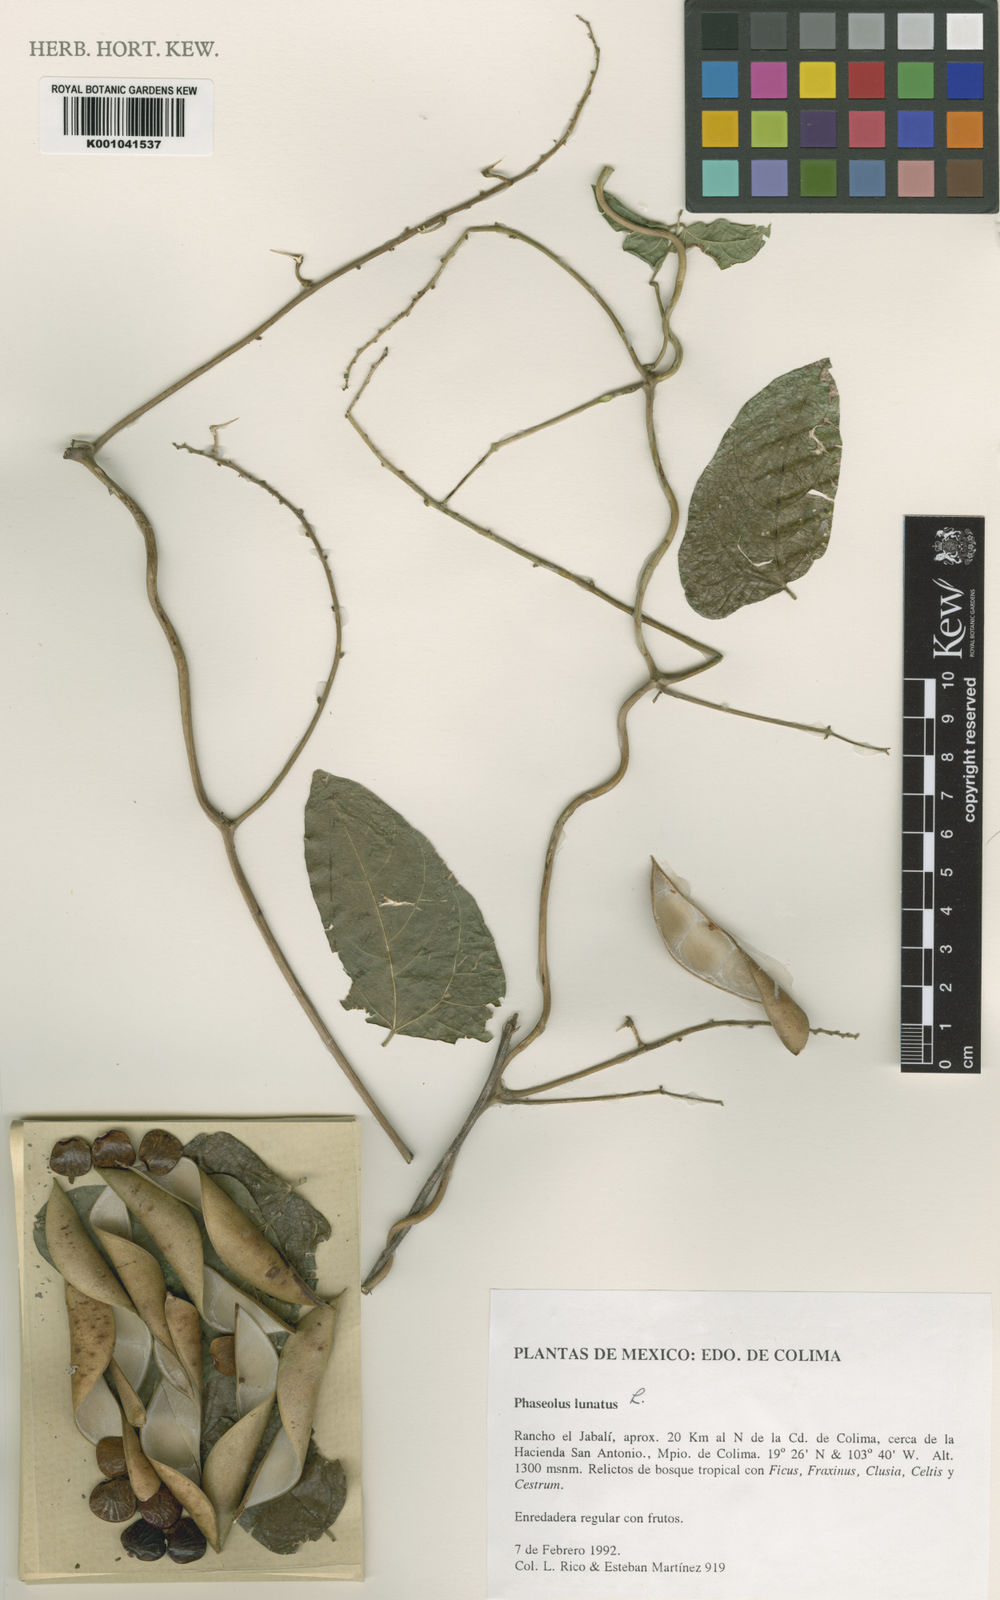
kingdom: Plantae
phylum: Tracheophyta
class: Magnoliopsida
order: Fabales
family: Fabaceae
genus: Phaseolus
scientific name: Phaseolus lunatus
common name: Sieva bean
